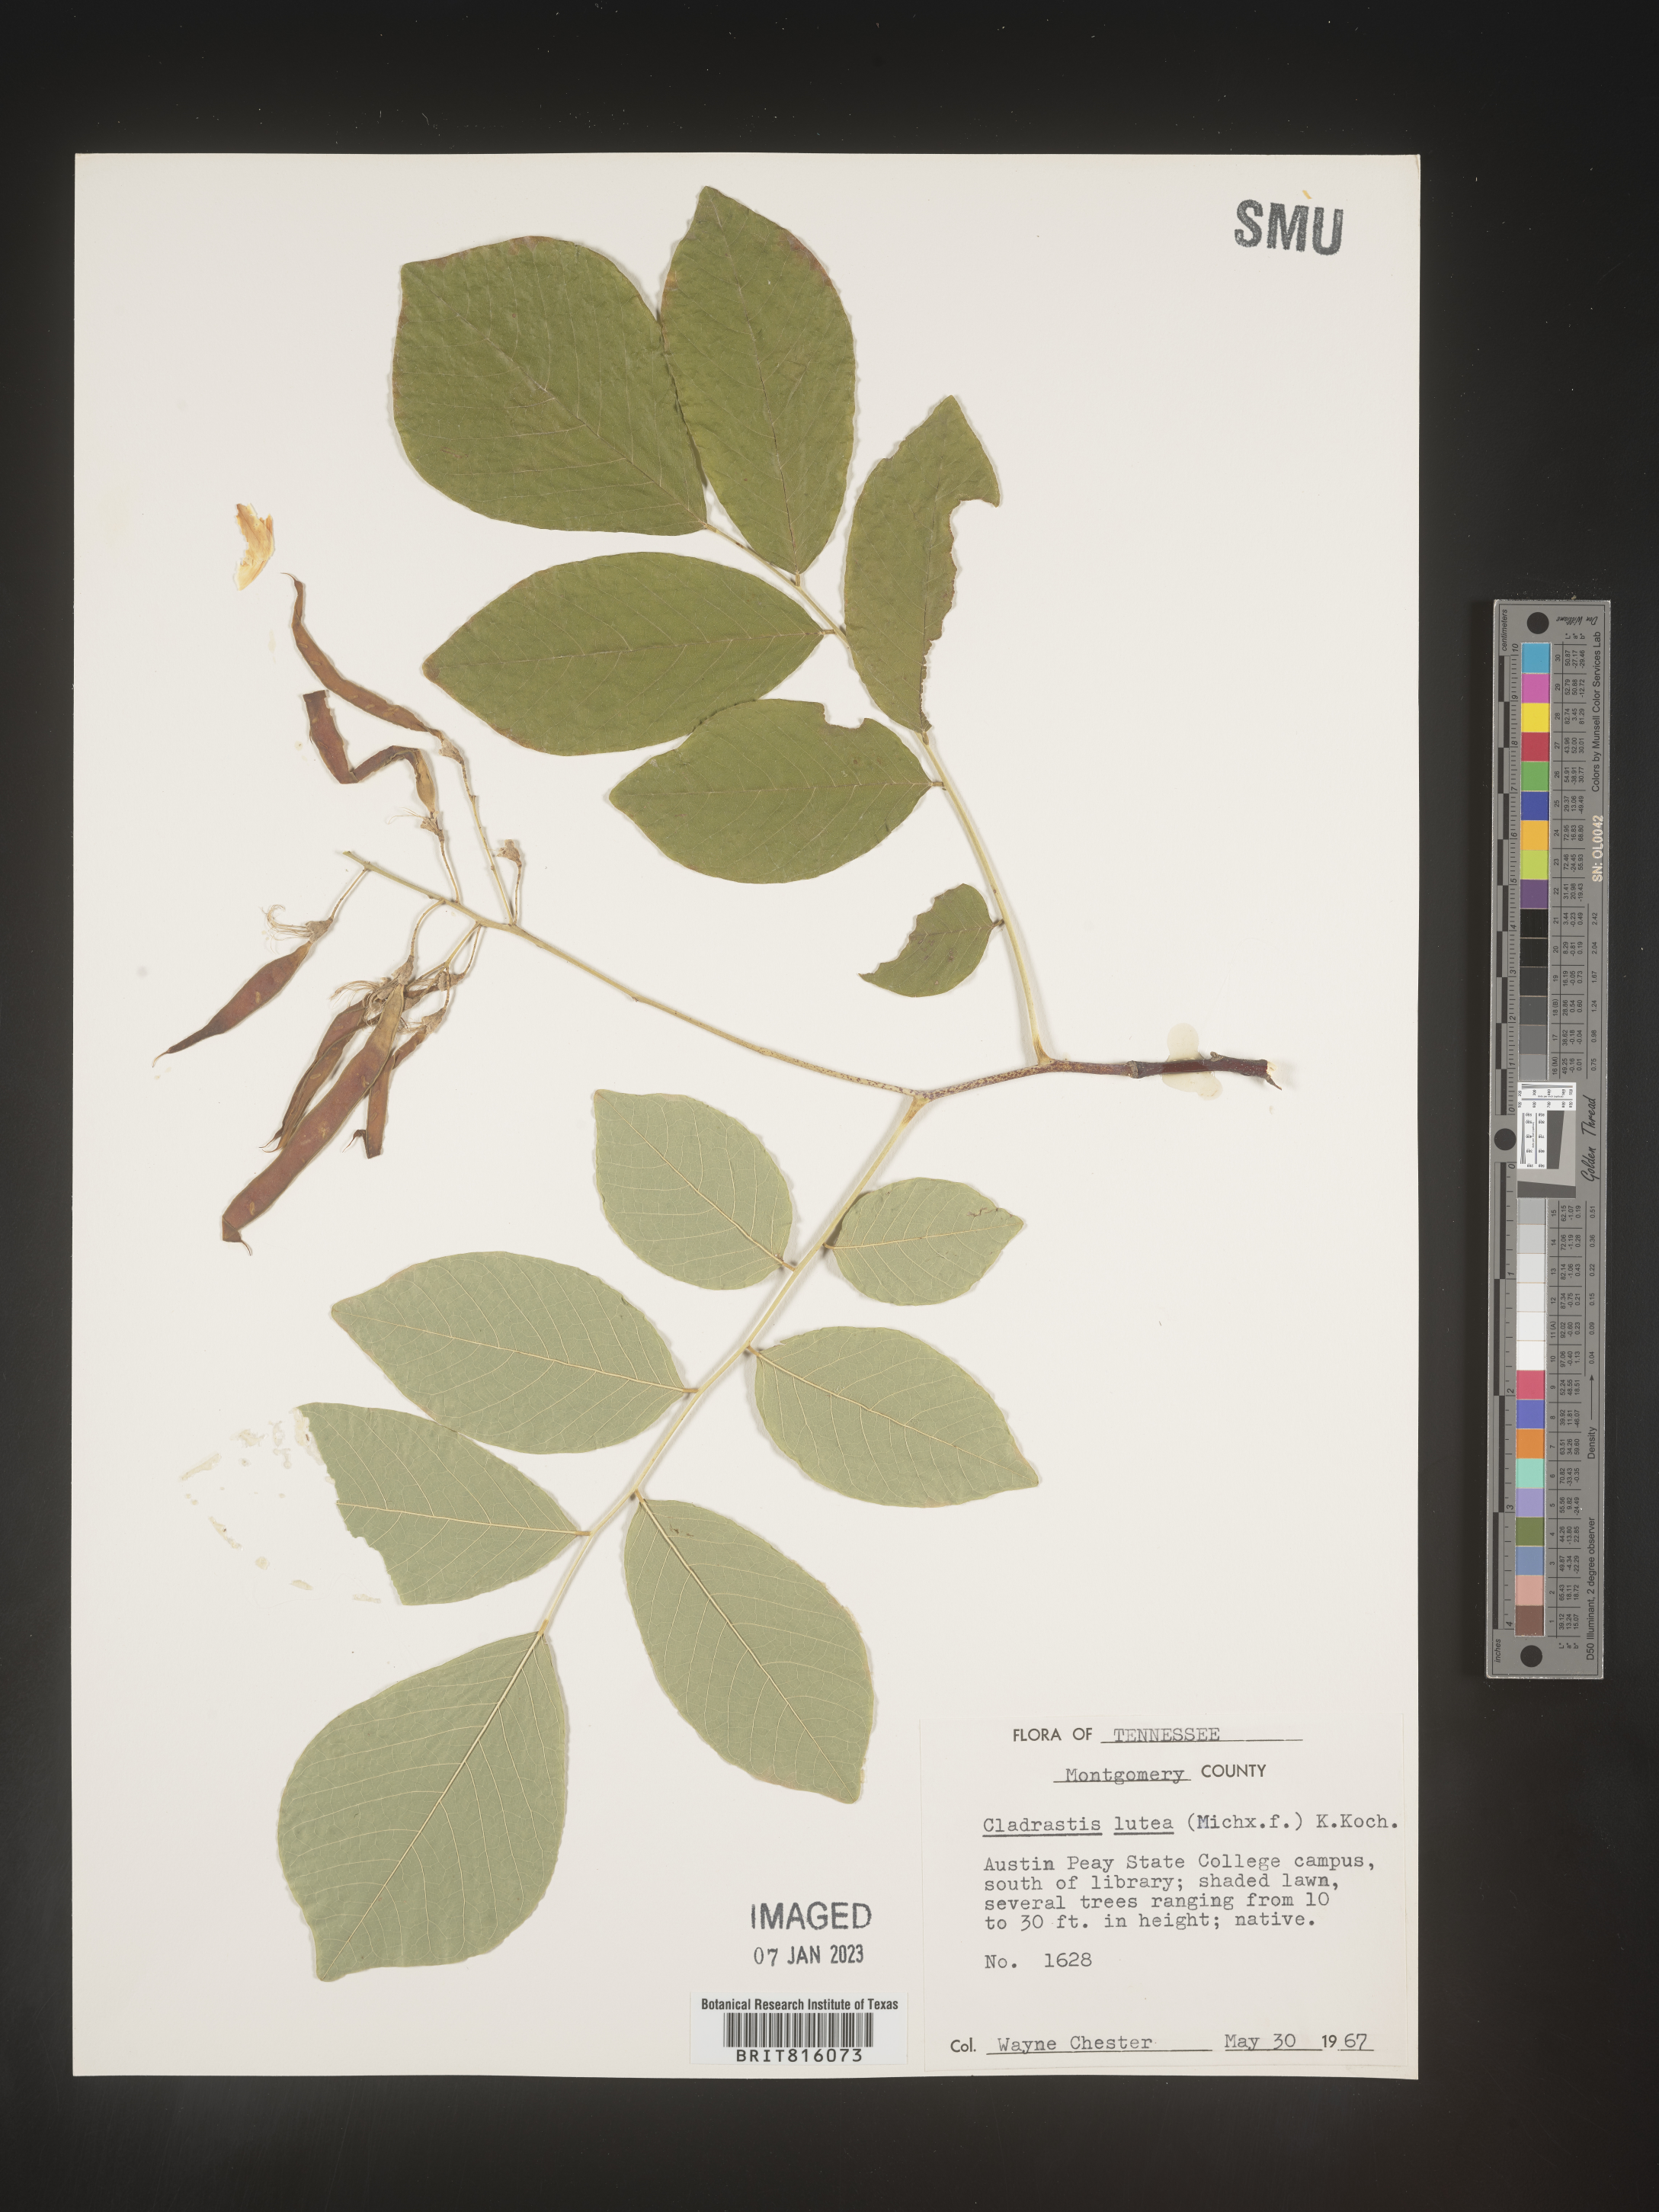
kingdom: Plantae
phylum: Tracheophyta
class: Magnoliopsida
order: Fabales
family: Fabaceae
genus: Cladrastis
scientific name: Cladrastis kentukea
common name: Kentucky yellow-wood
